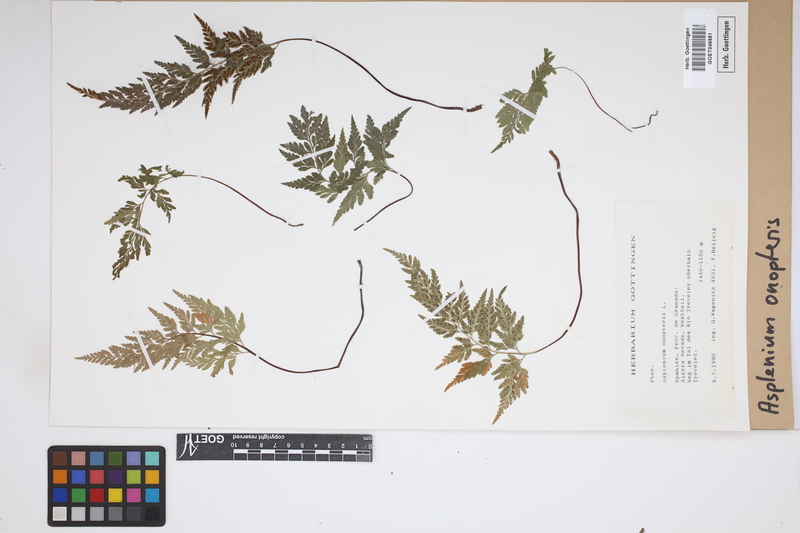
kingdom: Plantae
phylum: Tracheophyta
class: Polypodiopsida
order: Polypodiales
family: Aspleniaceae
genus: Asplenium
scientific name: Asplenium onopteris
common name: Irish spleenwort
